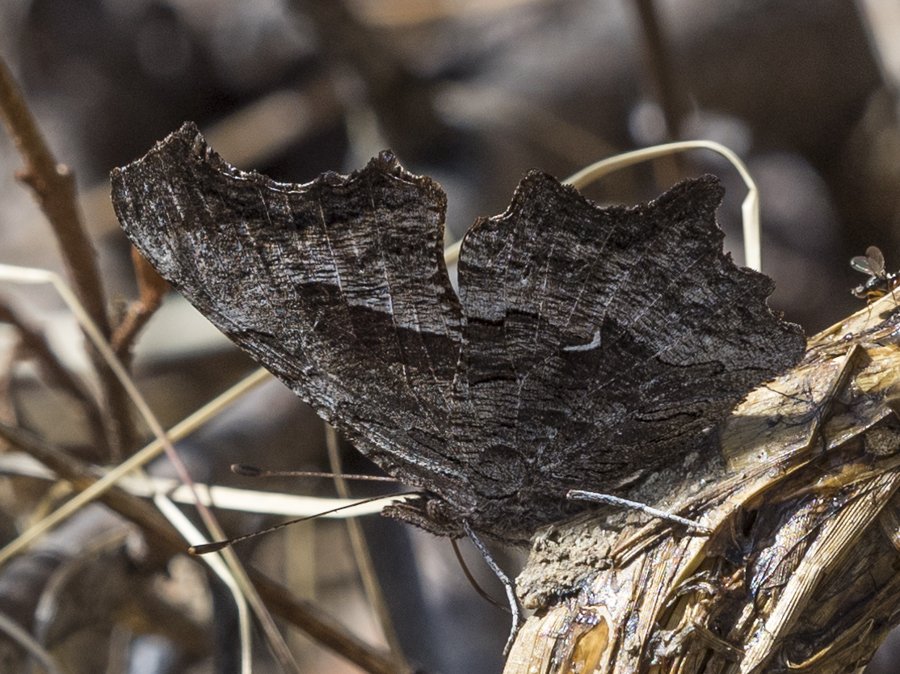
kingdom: Animalia
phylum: Arthropoda
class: Insecta
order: Lepidoptera
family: Nymphalidae
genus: Polygonia
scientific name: Polygonia gracilis
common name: Hoary Comma
